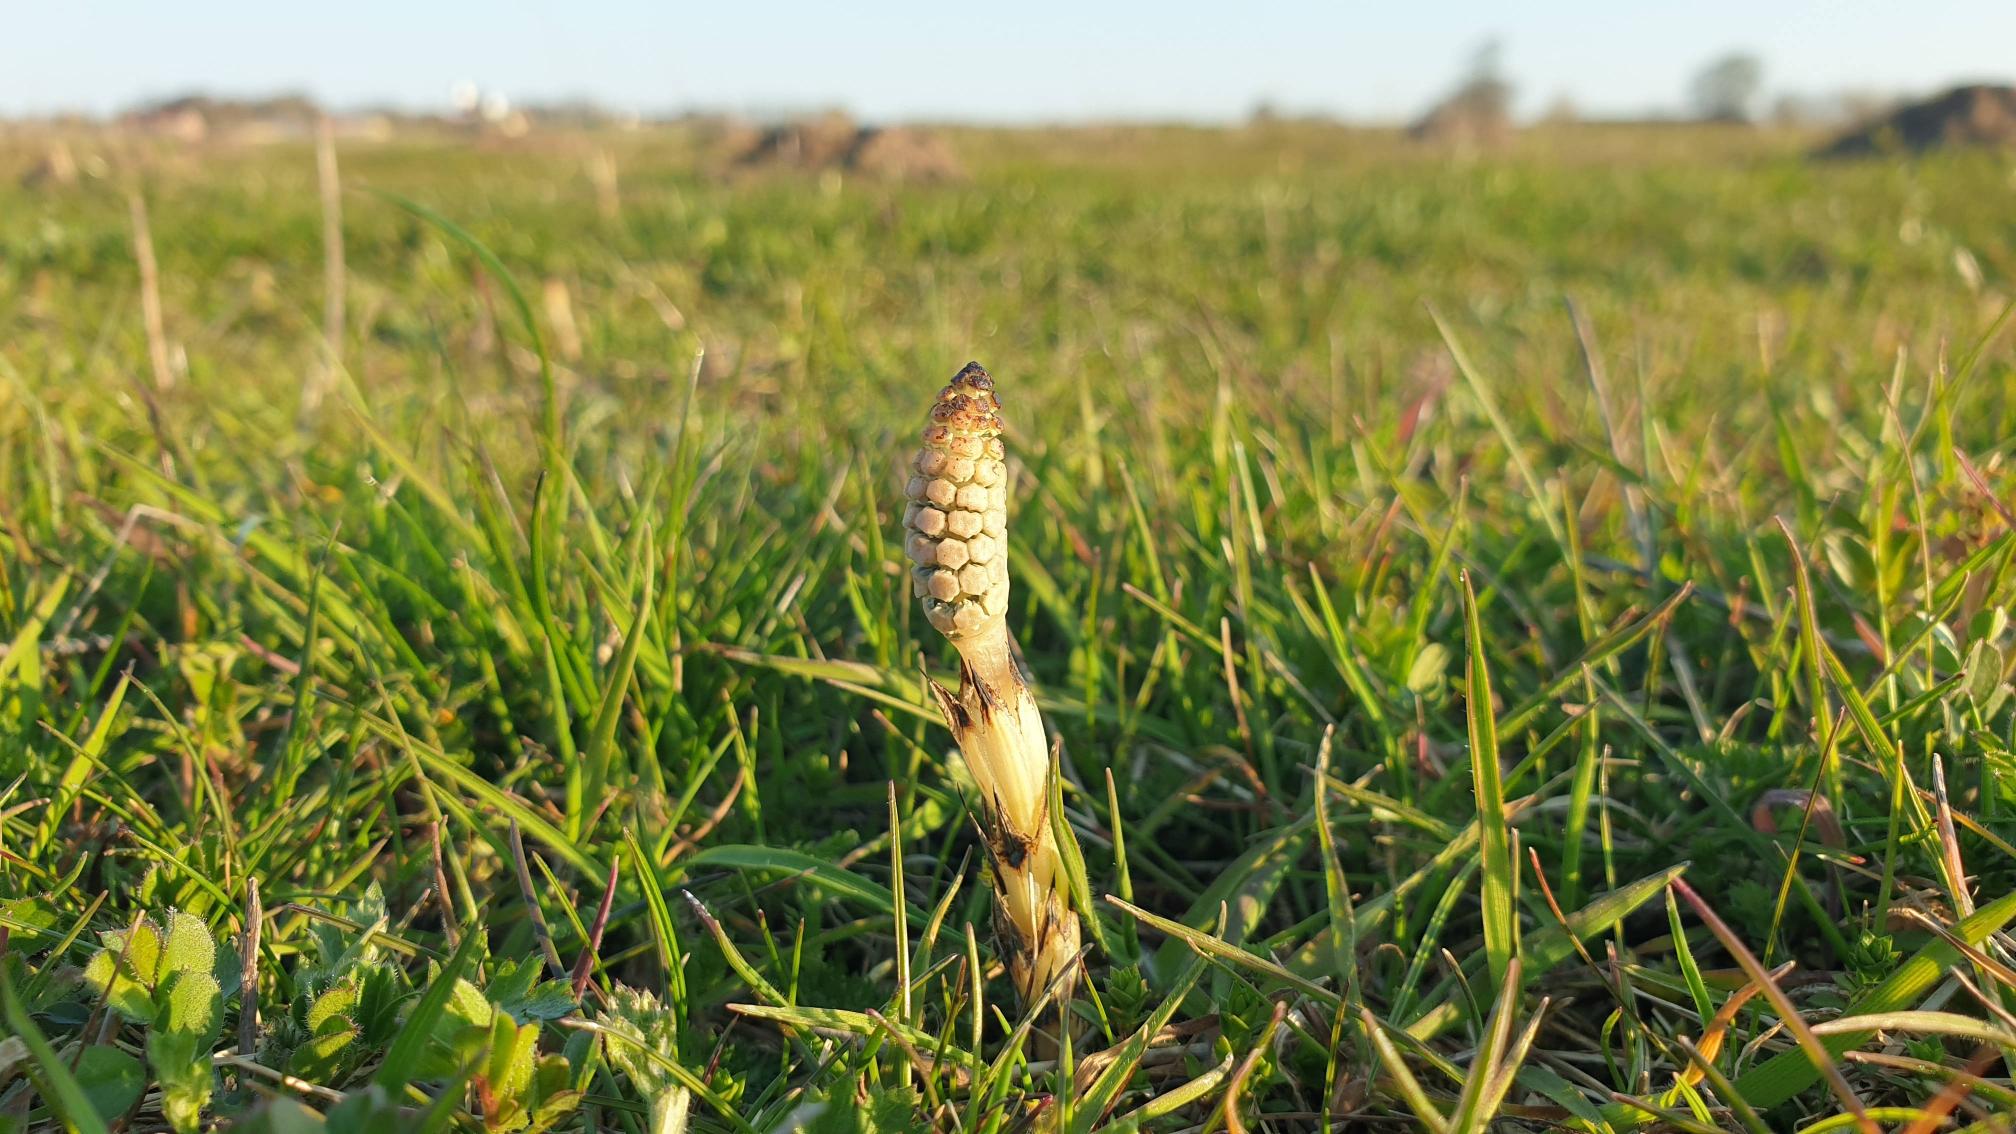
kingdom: Plantae
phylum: Tracheophyta
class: Polypodiopsida
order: Equisetales
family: Equisetaceae
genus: Equisetum
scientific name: Equisetum arvense
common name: Ager-padderok
